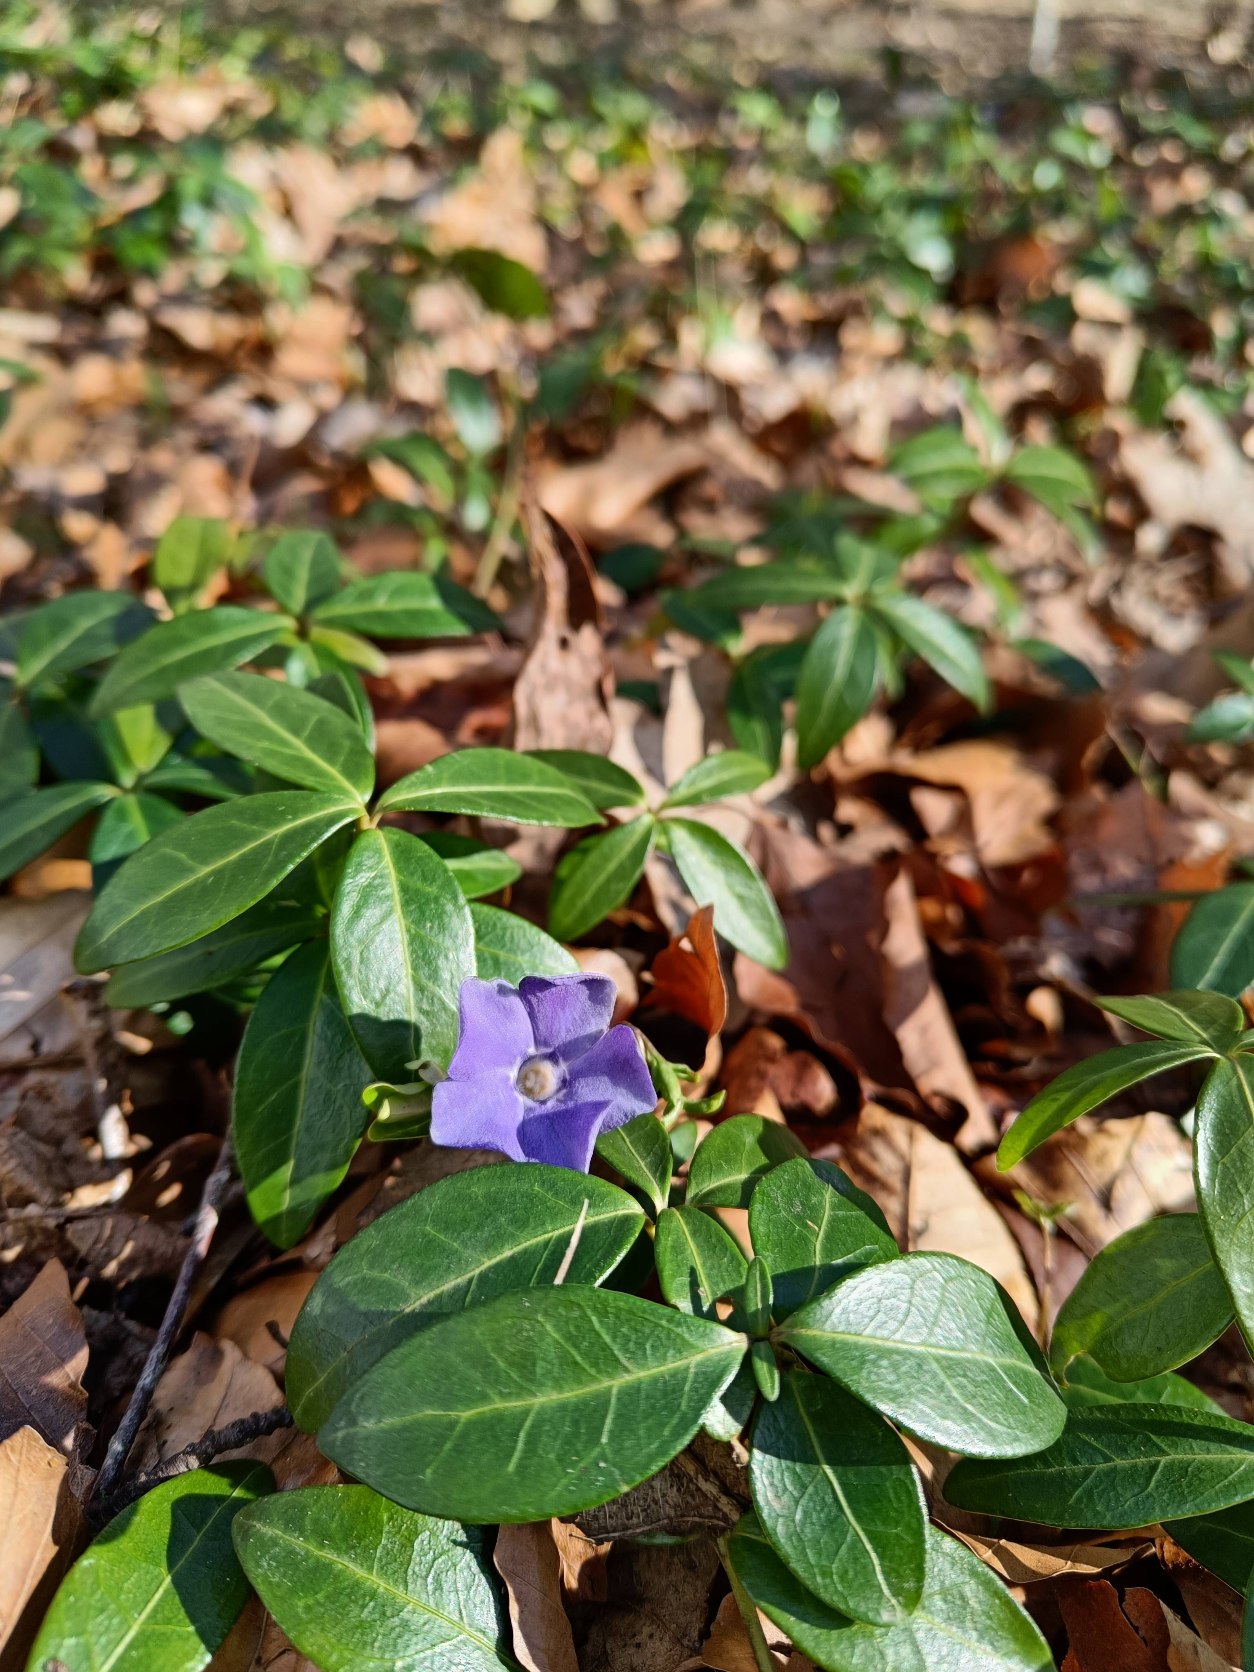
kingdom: Plantae
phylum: Tracheophyta
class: Magnoliopsida
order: Gentianales
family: Apocynaceae
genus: Vinca
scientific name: Vinca minor
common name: Liden singrøn
